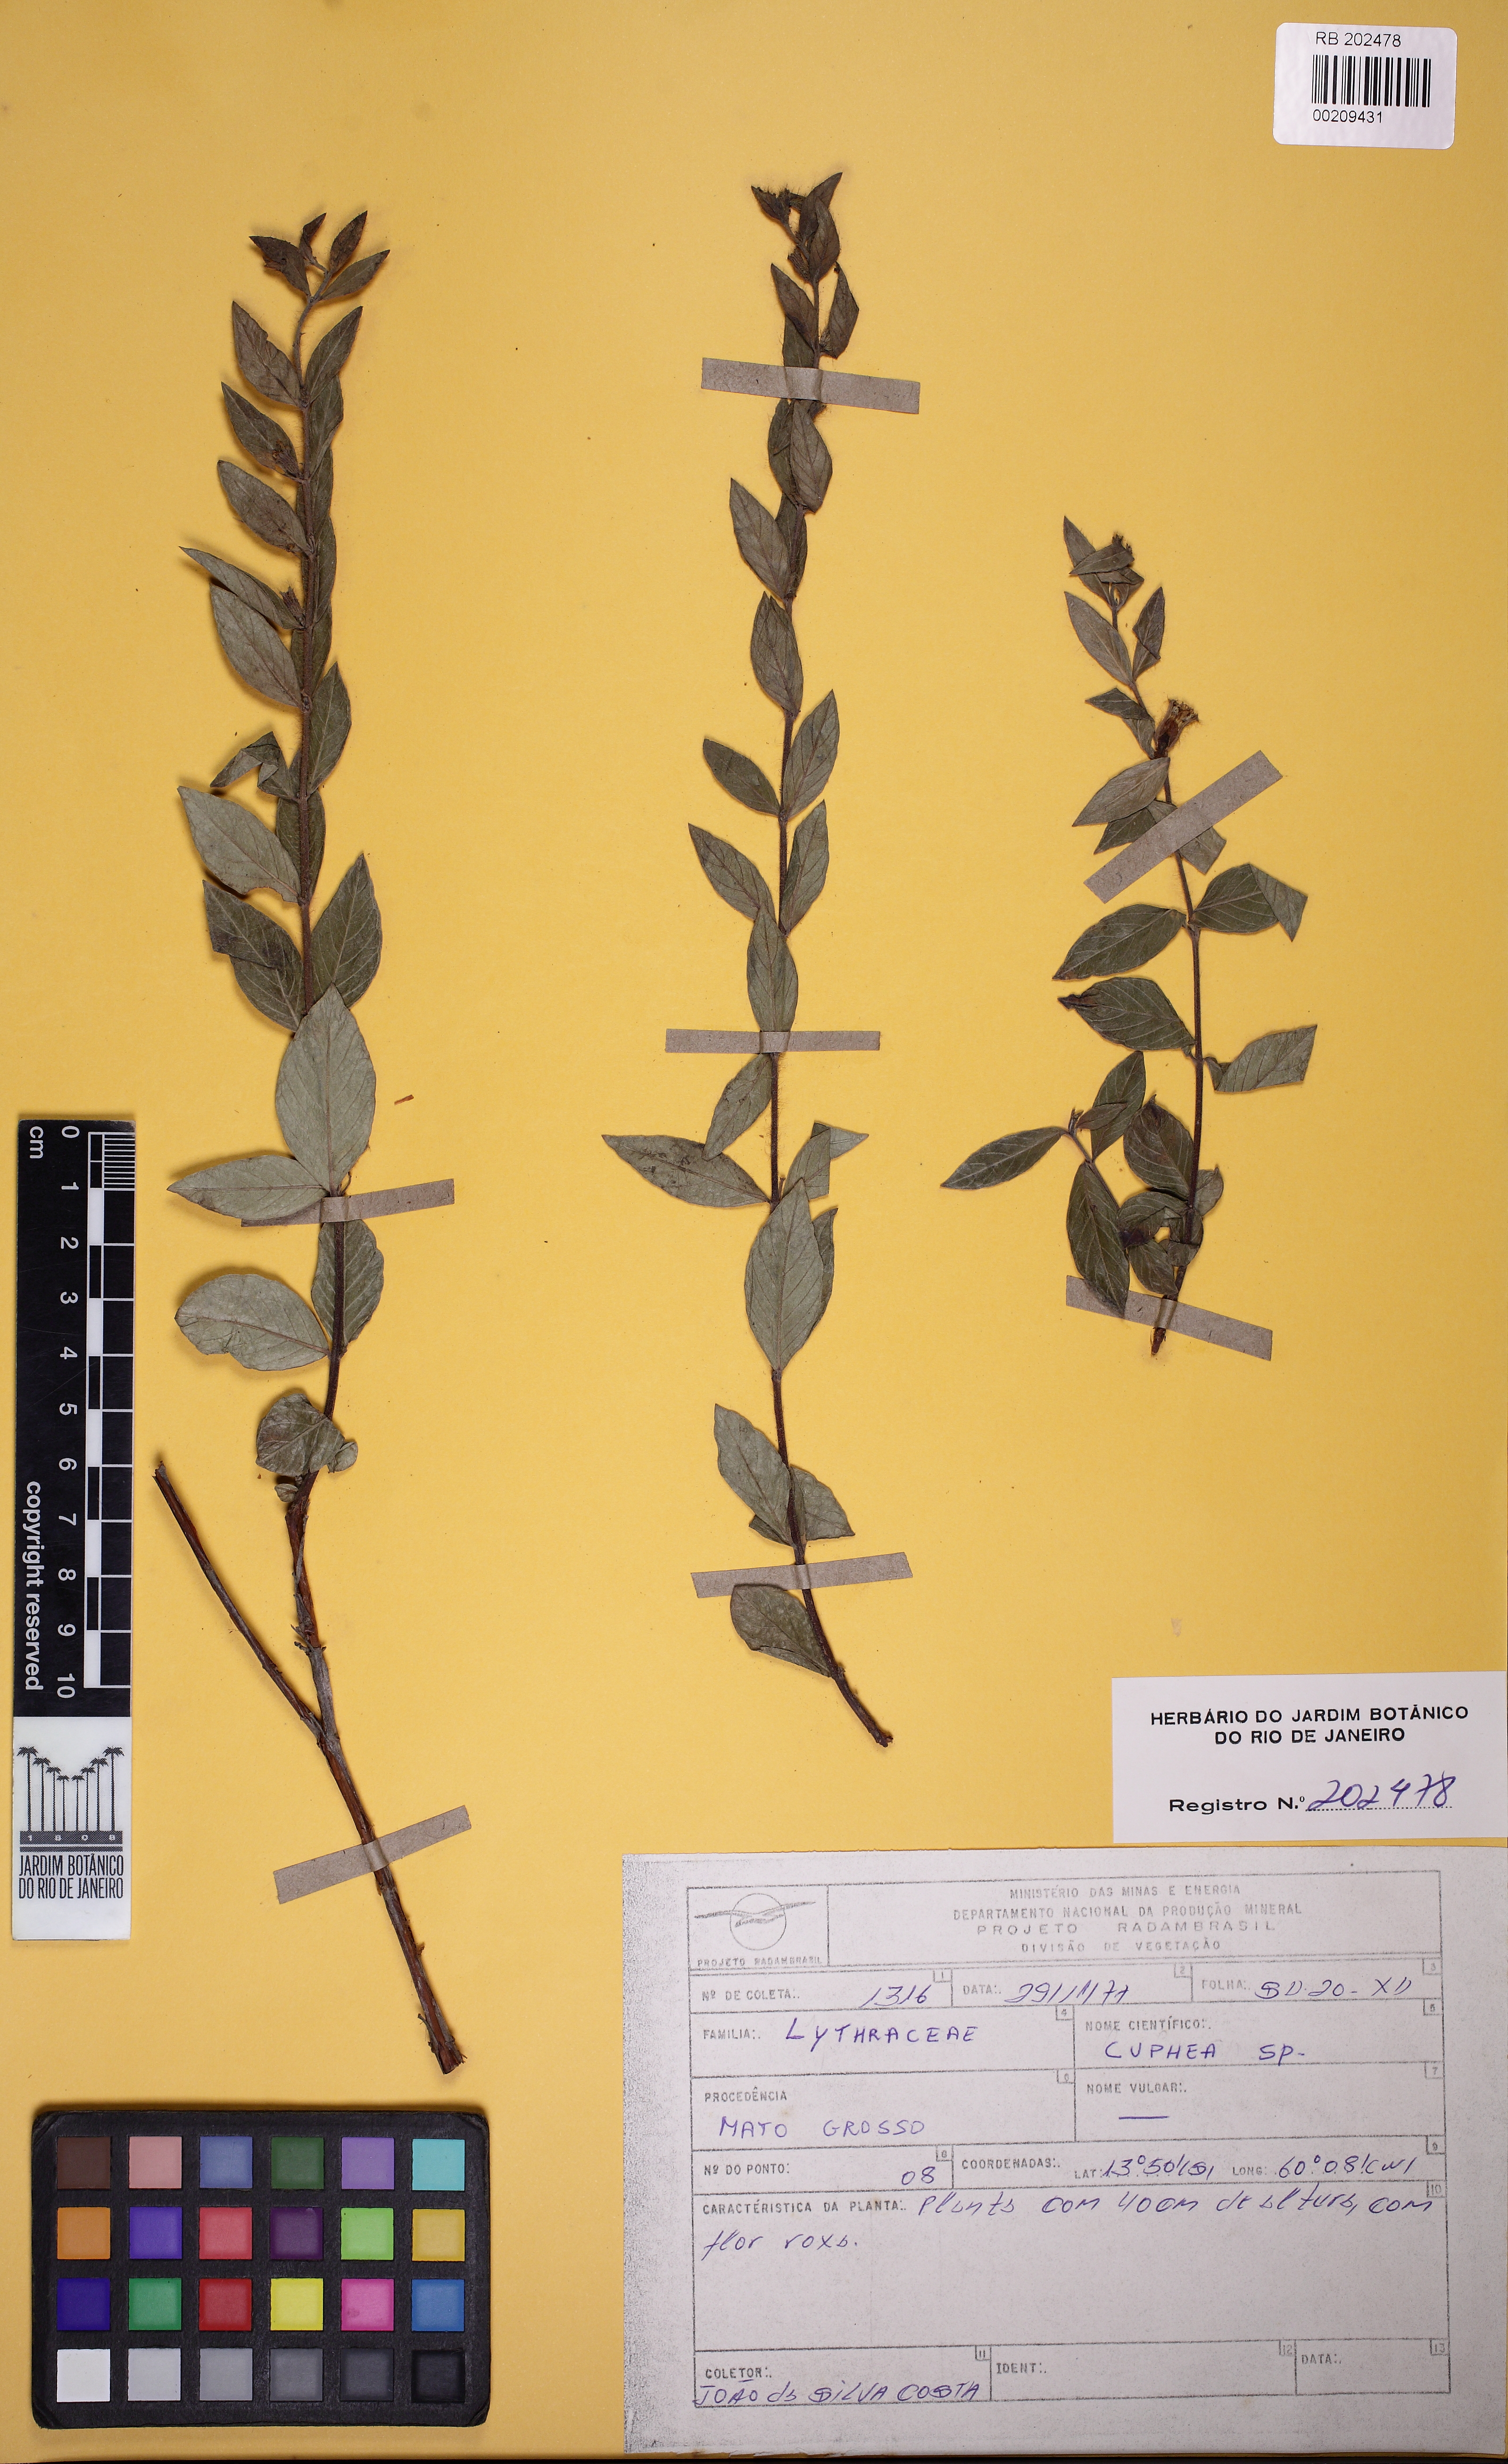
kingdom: Plantae
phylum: Tracheophyta
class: Magnoliopsida
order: Myrtales
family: Lythraceae
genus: Cuphea
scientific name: Cuphea
